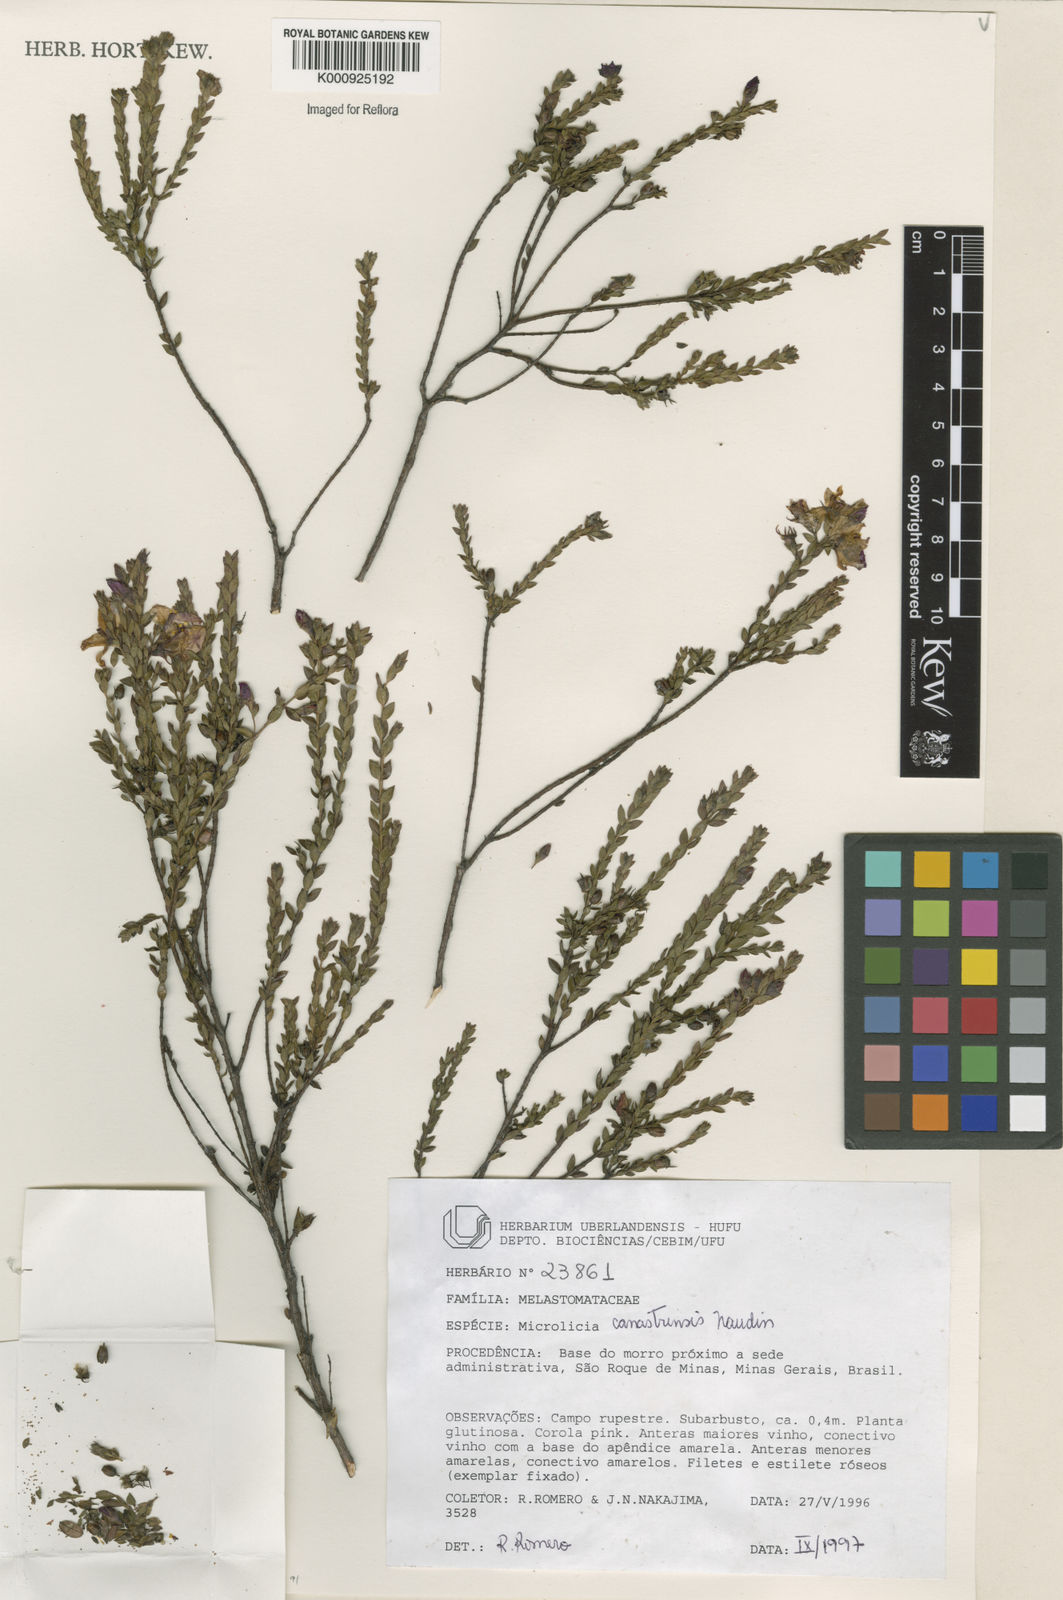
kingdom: Plantae
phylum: Tracheophyta
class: Magnoliopsida
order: Myrtales
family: Melastomataceae
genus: Microlicia
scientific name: Microlicia canastrensis
